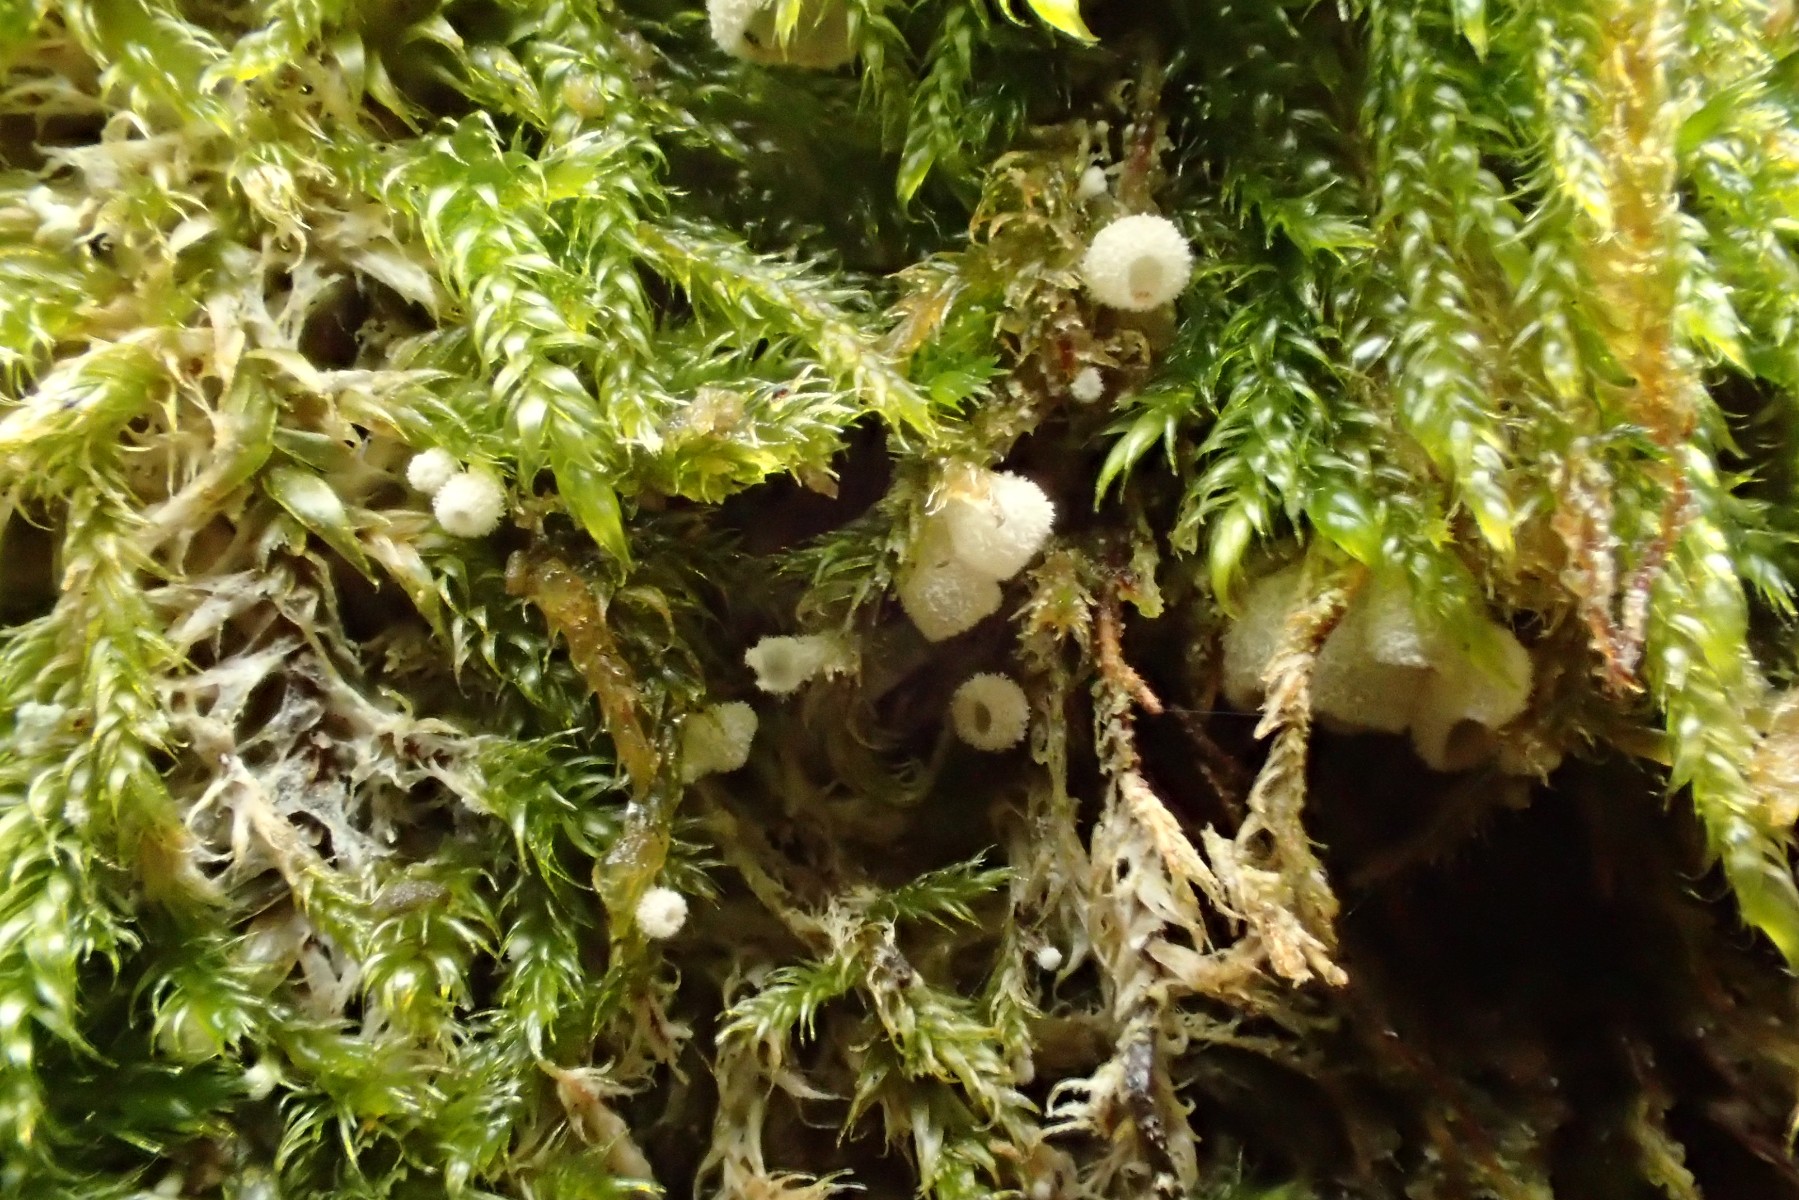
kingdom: Fungi
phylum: Basidiomycota
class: Agaricomycetes
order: Agaricales
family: Chromocyphellaceae
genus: Chromocyphella
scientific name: Chromocyphella muscicola
